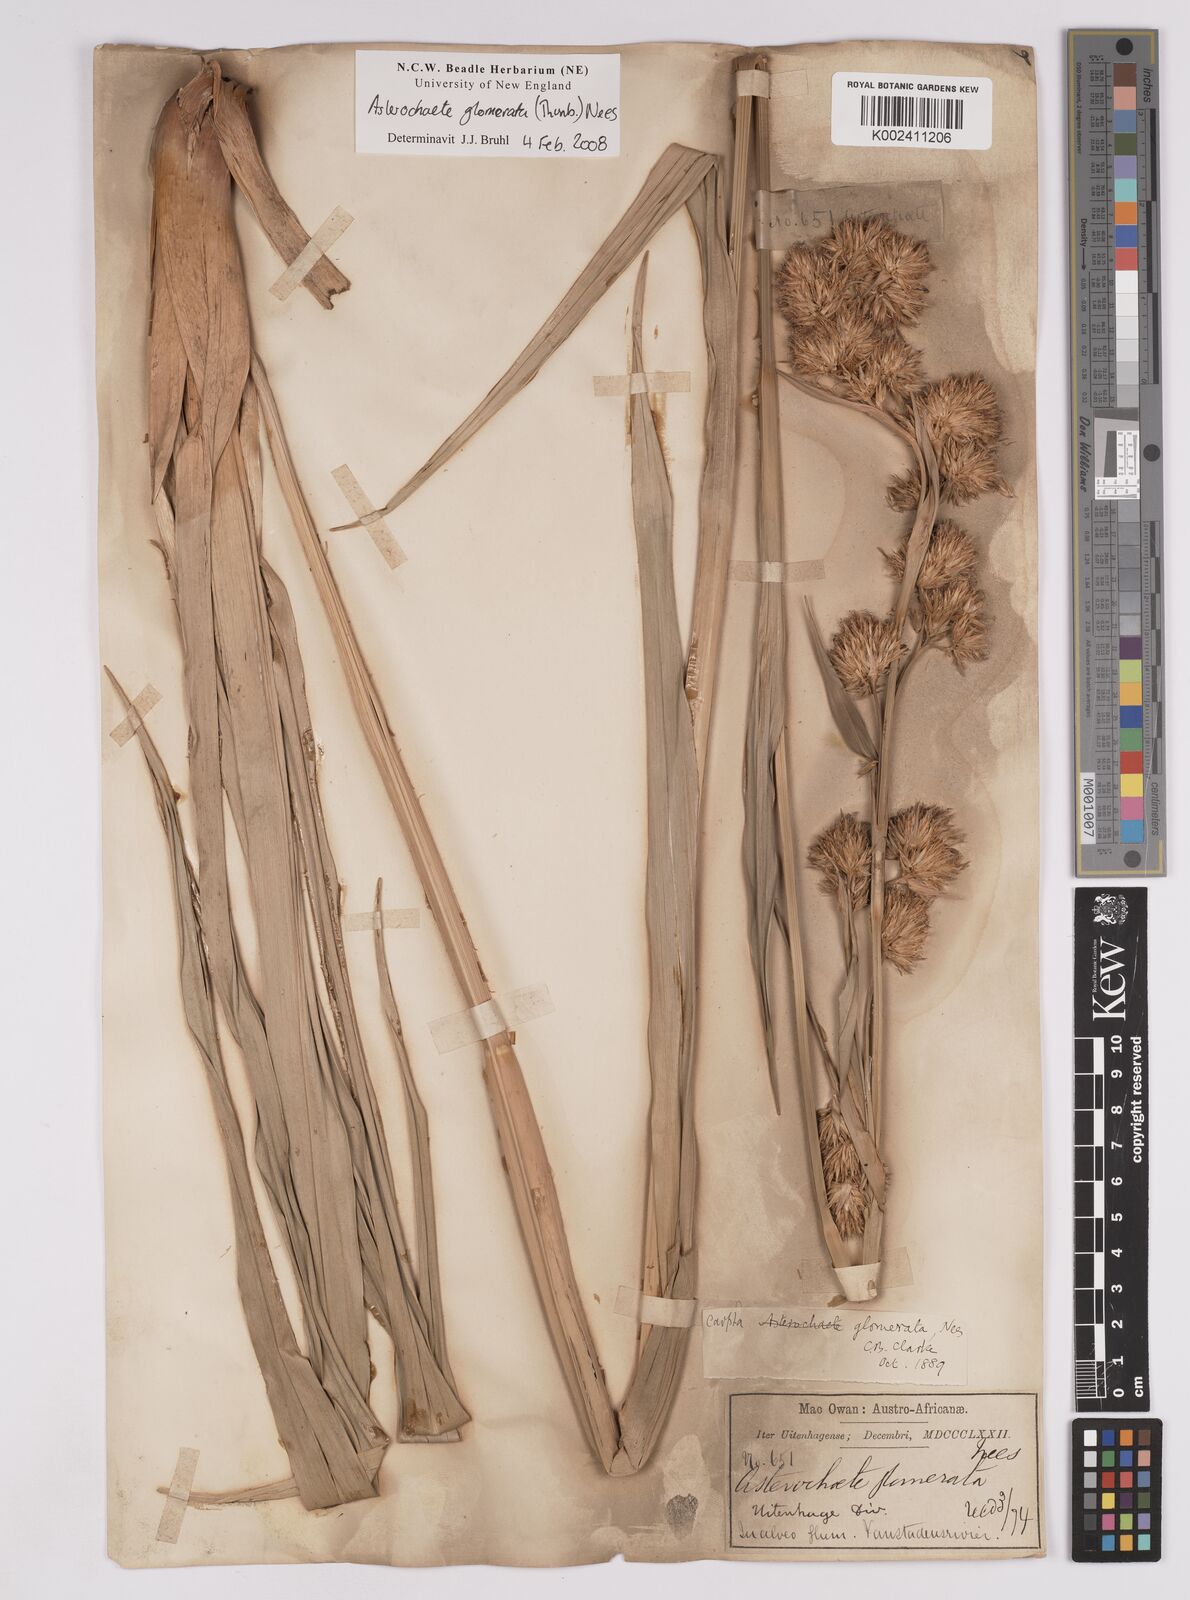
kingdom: Plantae
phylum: Tracheophyta
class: Liliopsida
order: Poales
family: Cyperaceae
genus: Carpha
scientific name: Carpha
